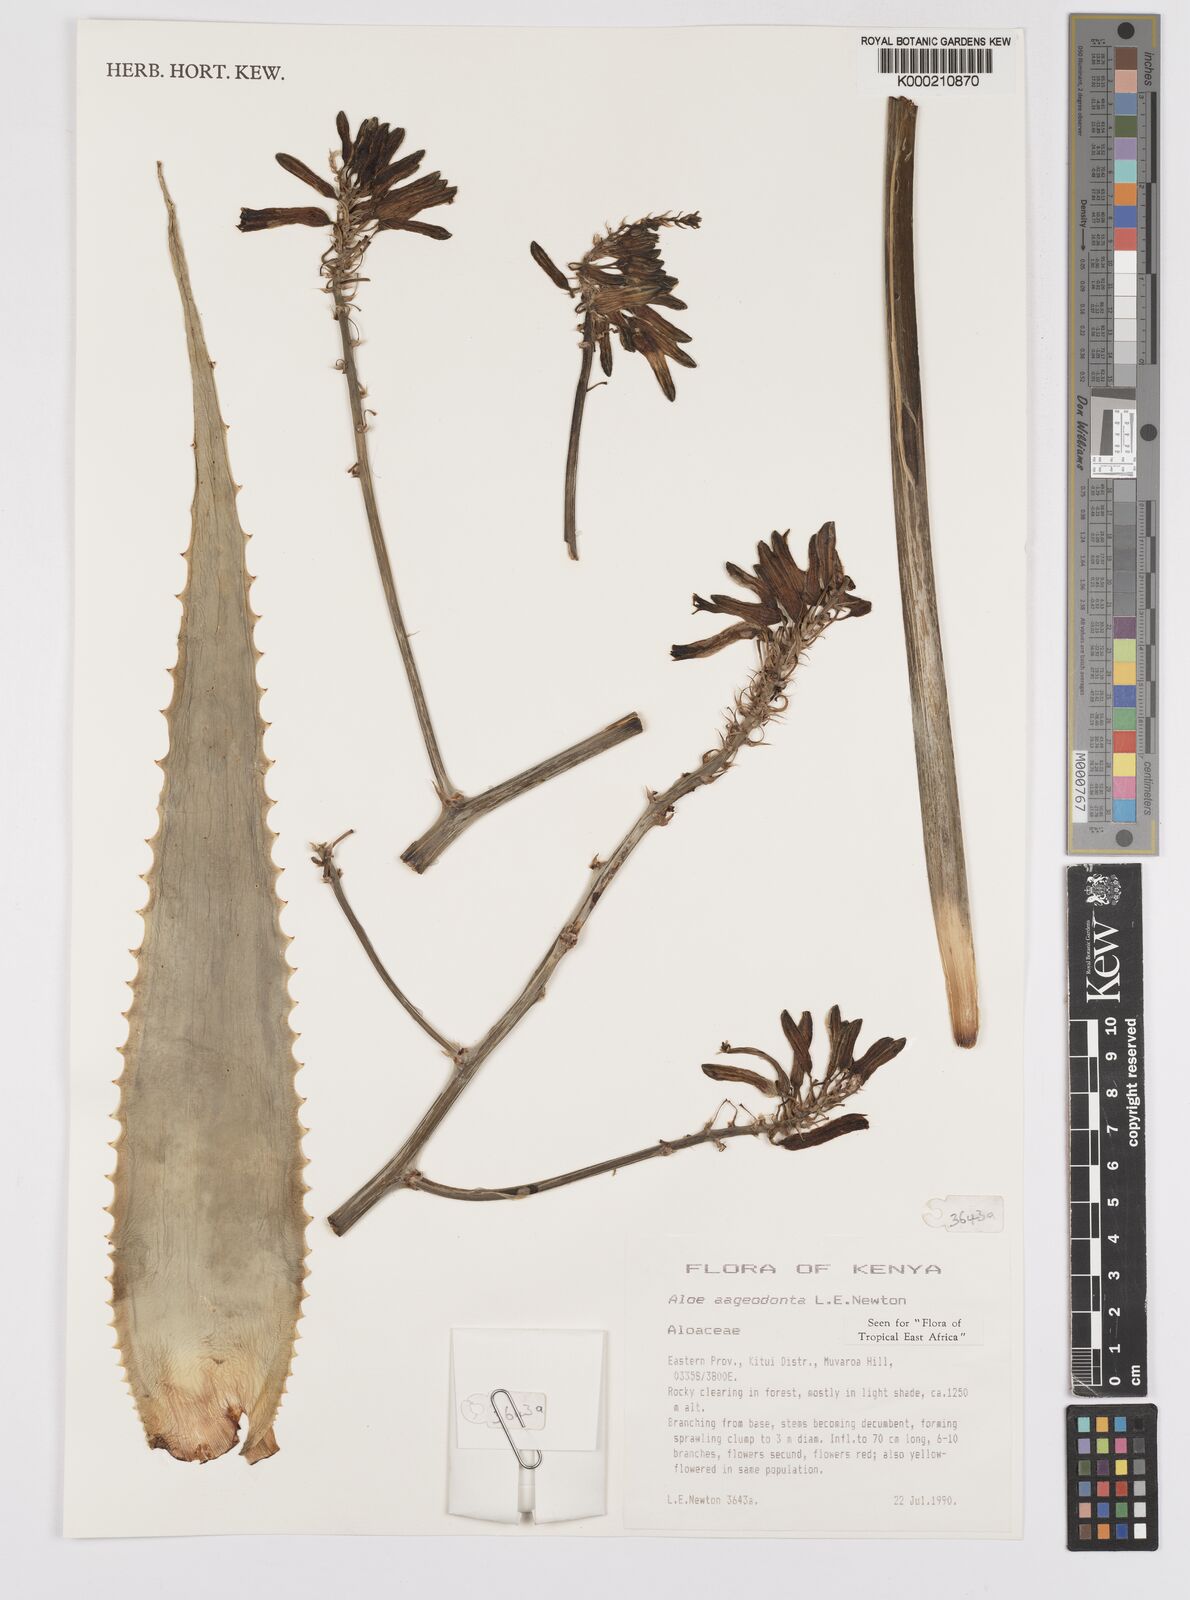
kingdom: Plantae
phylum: Tracheophyta
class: Liliopsida
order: Asparagales
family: Asphodelaceae
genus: Aloe
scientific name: Aloe aageodonta
